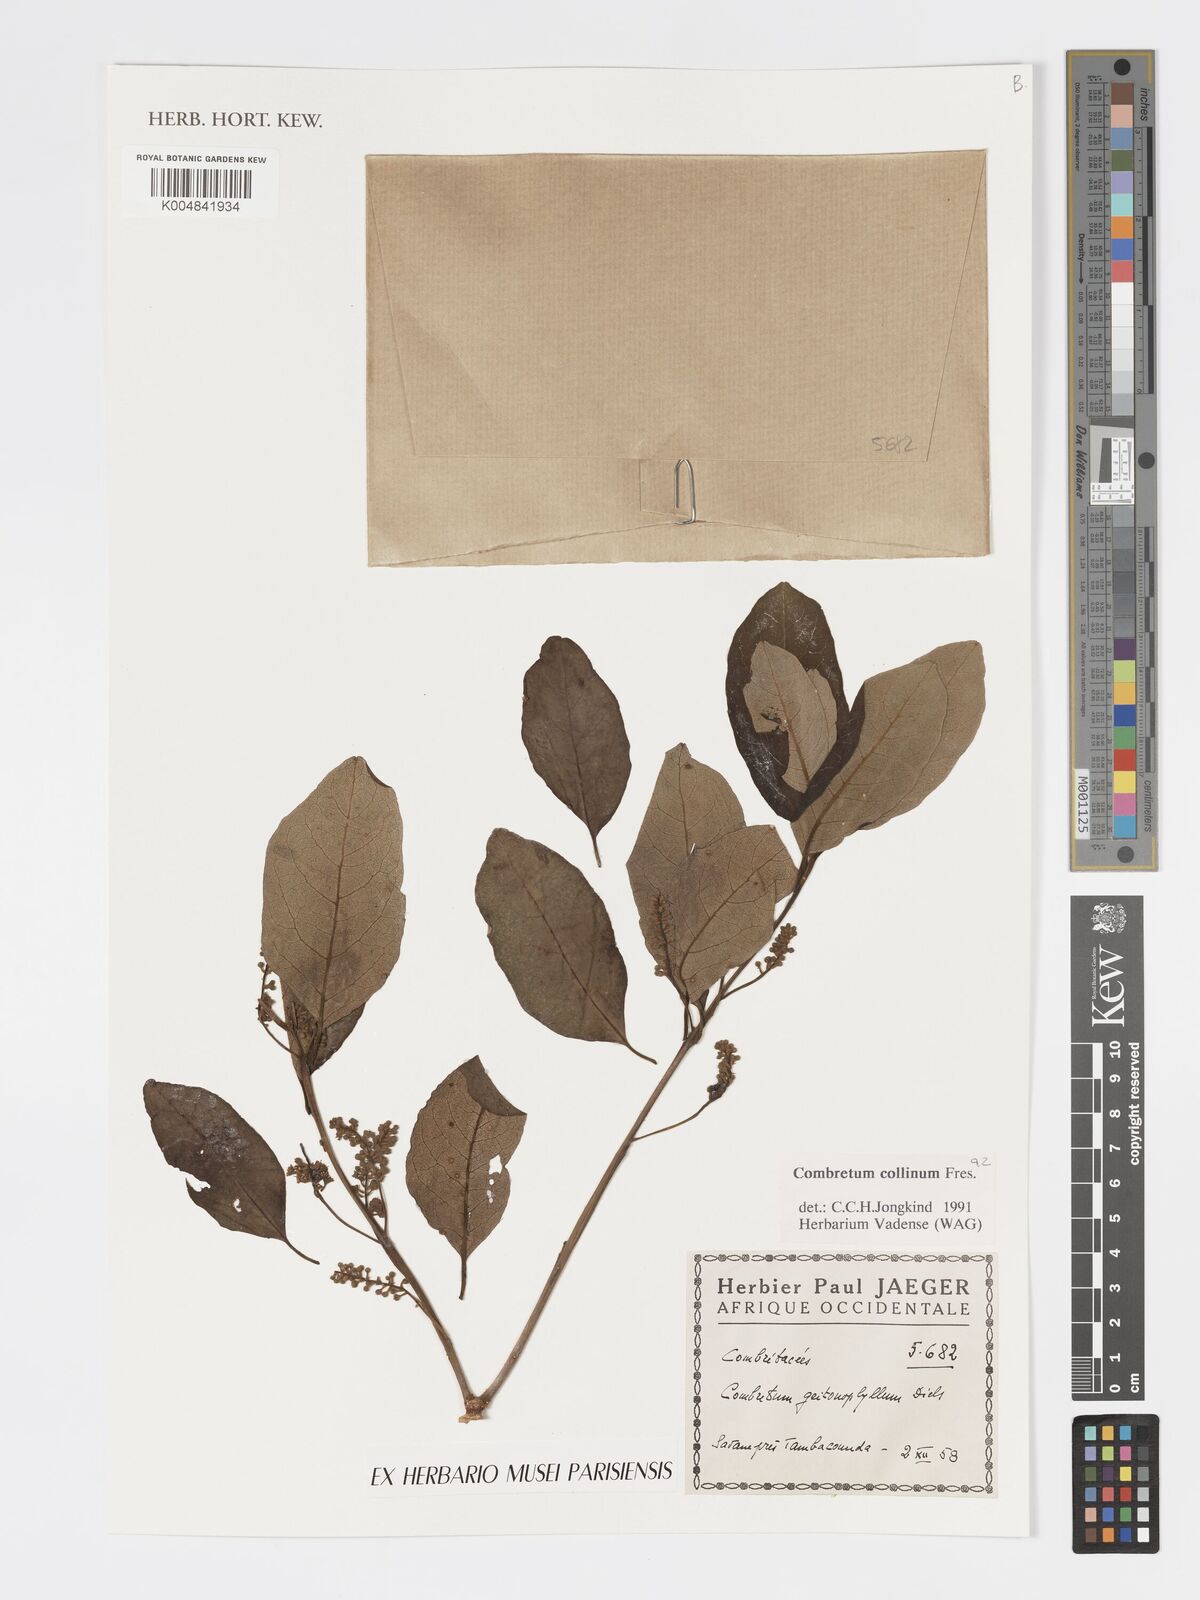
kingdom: Plantae
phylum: Tracheophyta
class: Magnoliopsida
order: Myrtales
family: Combretaceae
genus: Combretum
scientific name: Combretum collinum
